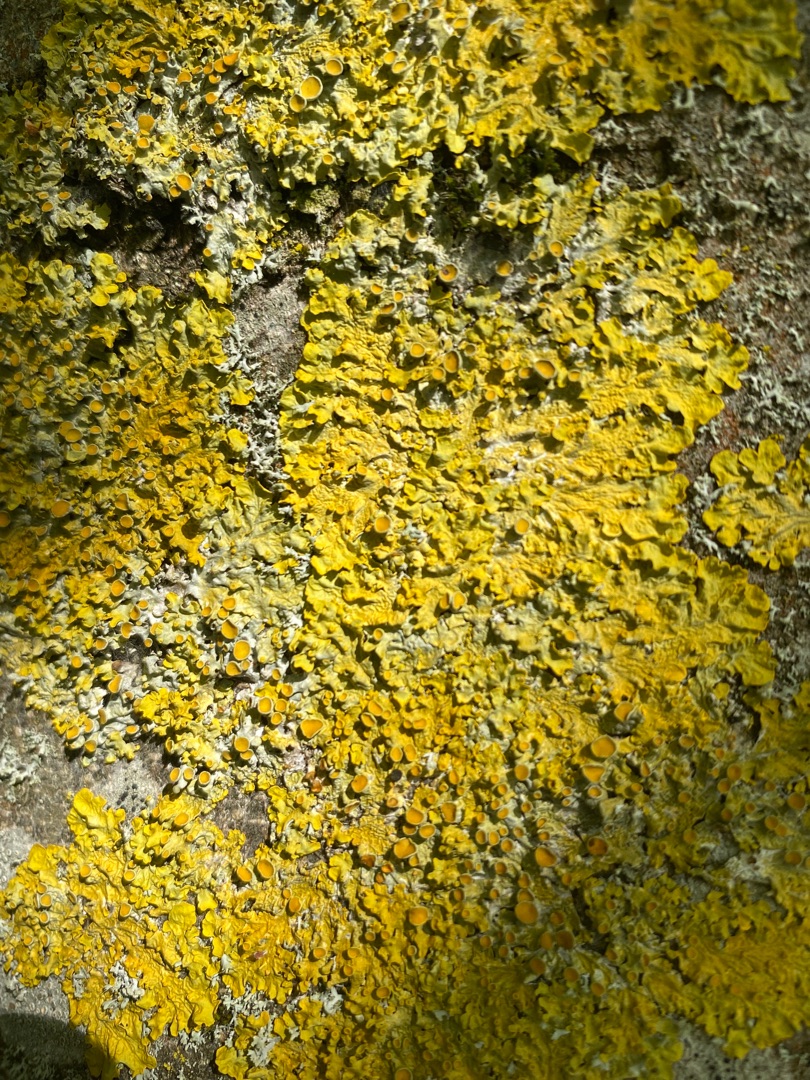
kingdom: Fungi
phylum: Ascomycota
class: Lecanoromycetes
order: Teloschistales
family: Teloschistaceae
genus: Xanthoria
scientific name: Xanthoria parietina
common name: Almindelig væggelav
